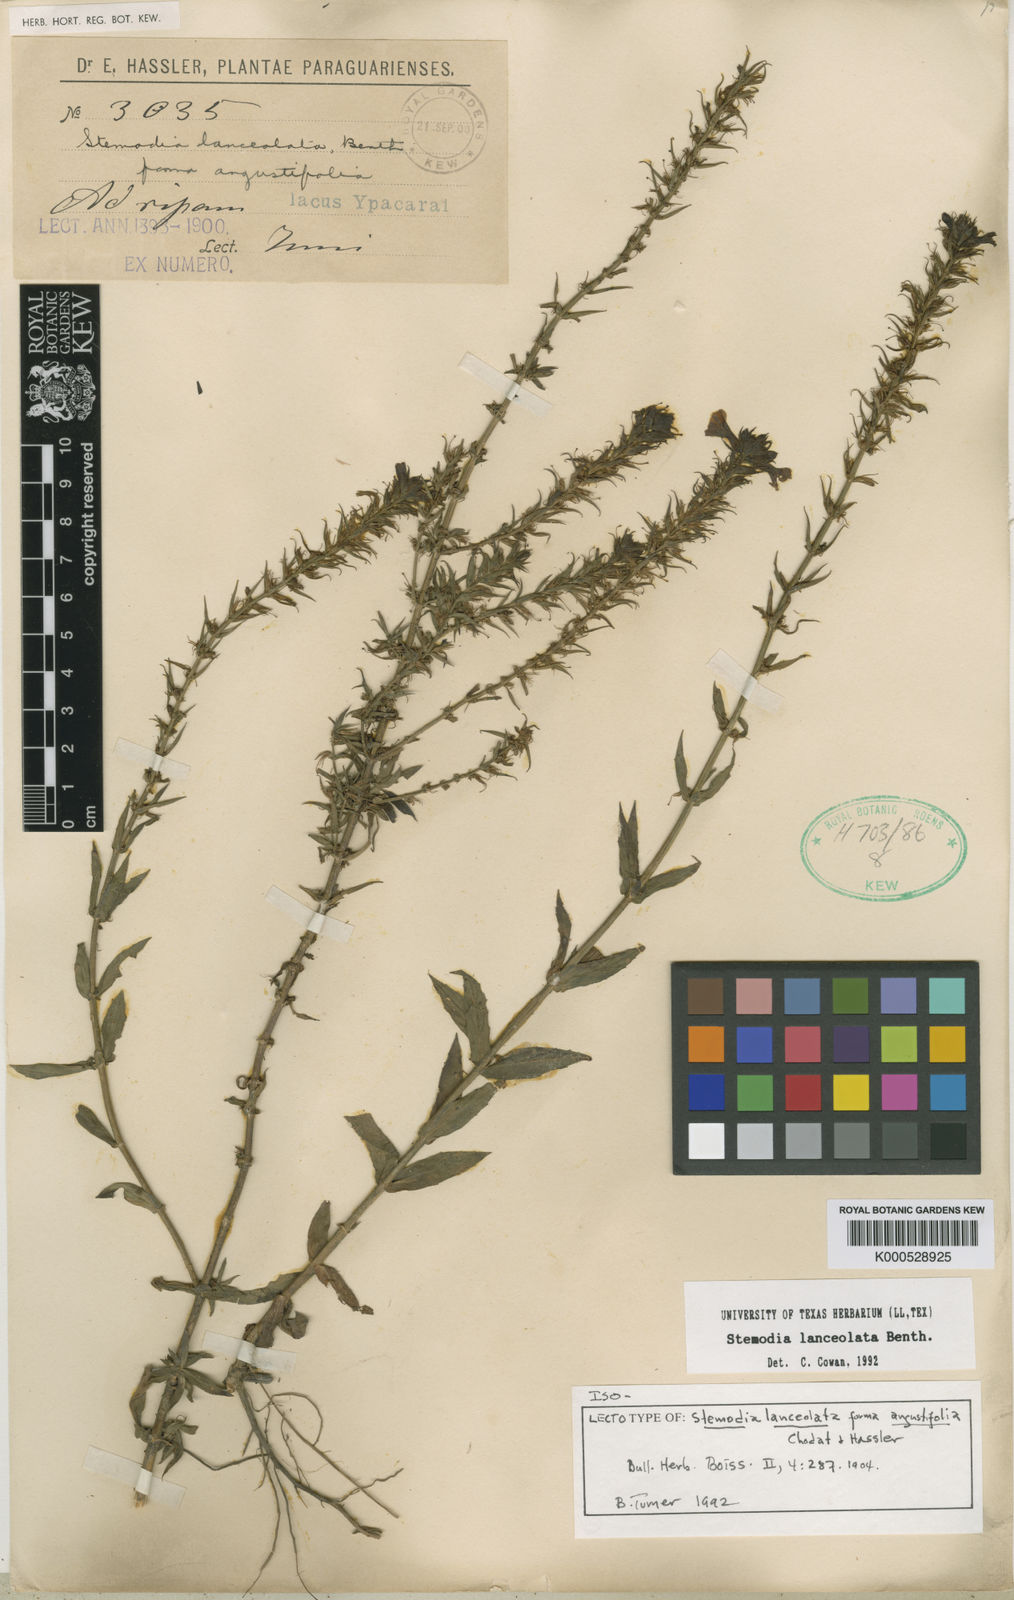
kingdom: Plantae
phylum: Tracheophyta
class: Magnoliopsida
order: Lamiales
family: Plantaginaceae
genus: Stemodia
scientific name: Stemodia lanceolata
